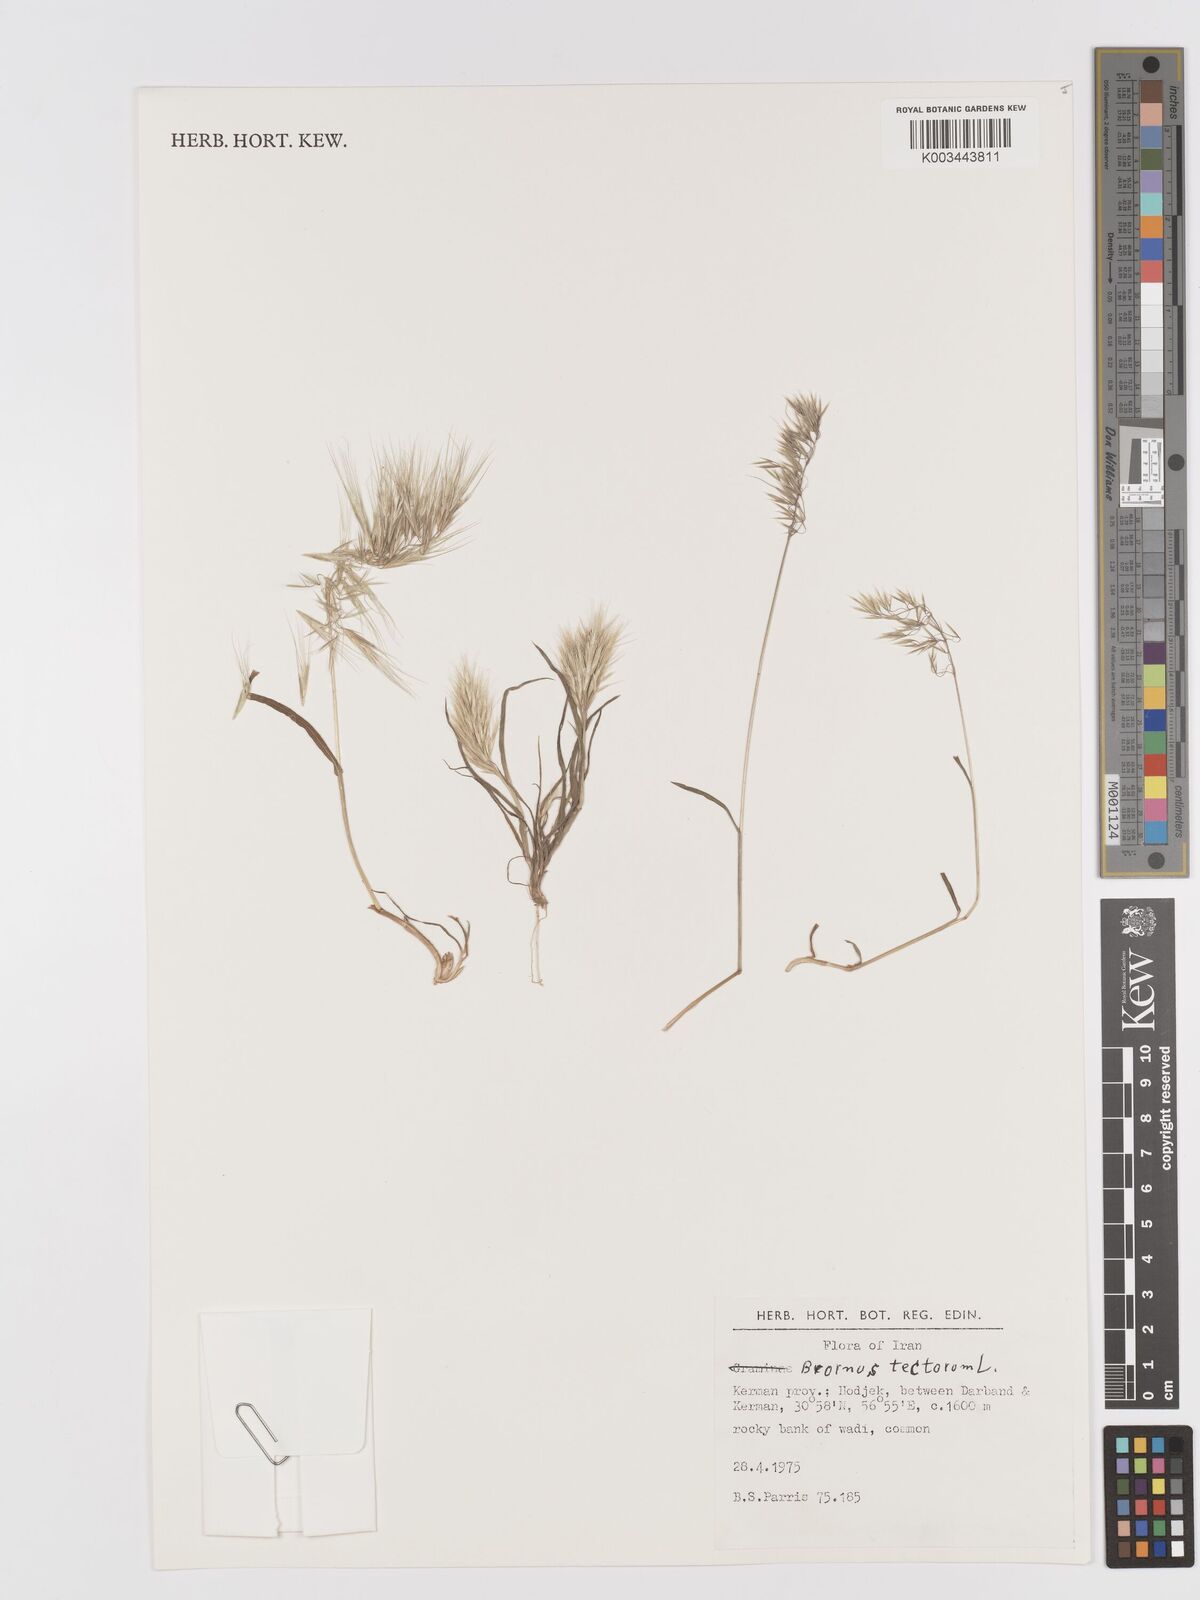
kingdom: Plantae
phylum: Tracheophyta
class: Liliopsida
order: Poales
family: Poaceae
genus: Bromus
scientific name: Bromus tectorum
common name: Cheatgrass
